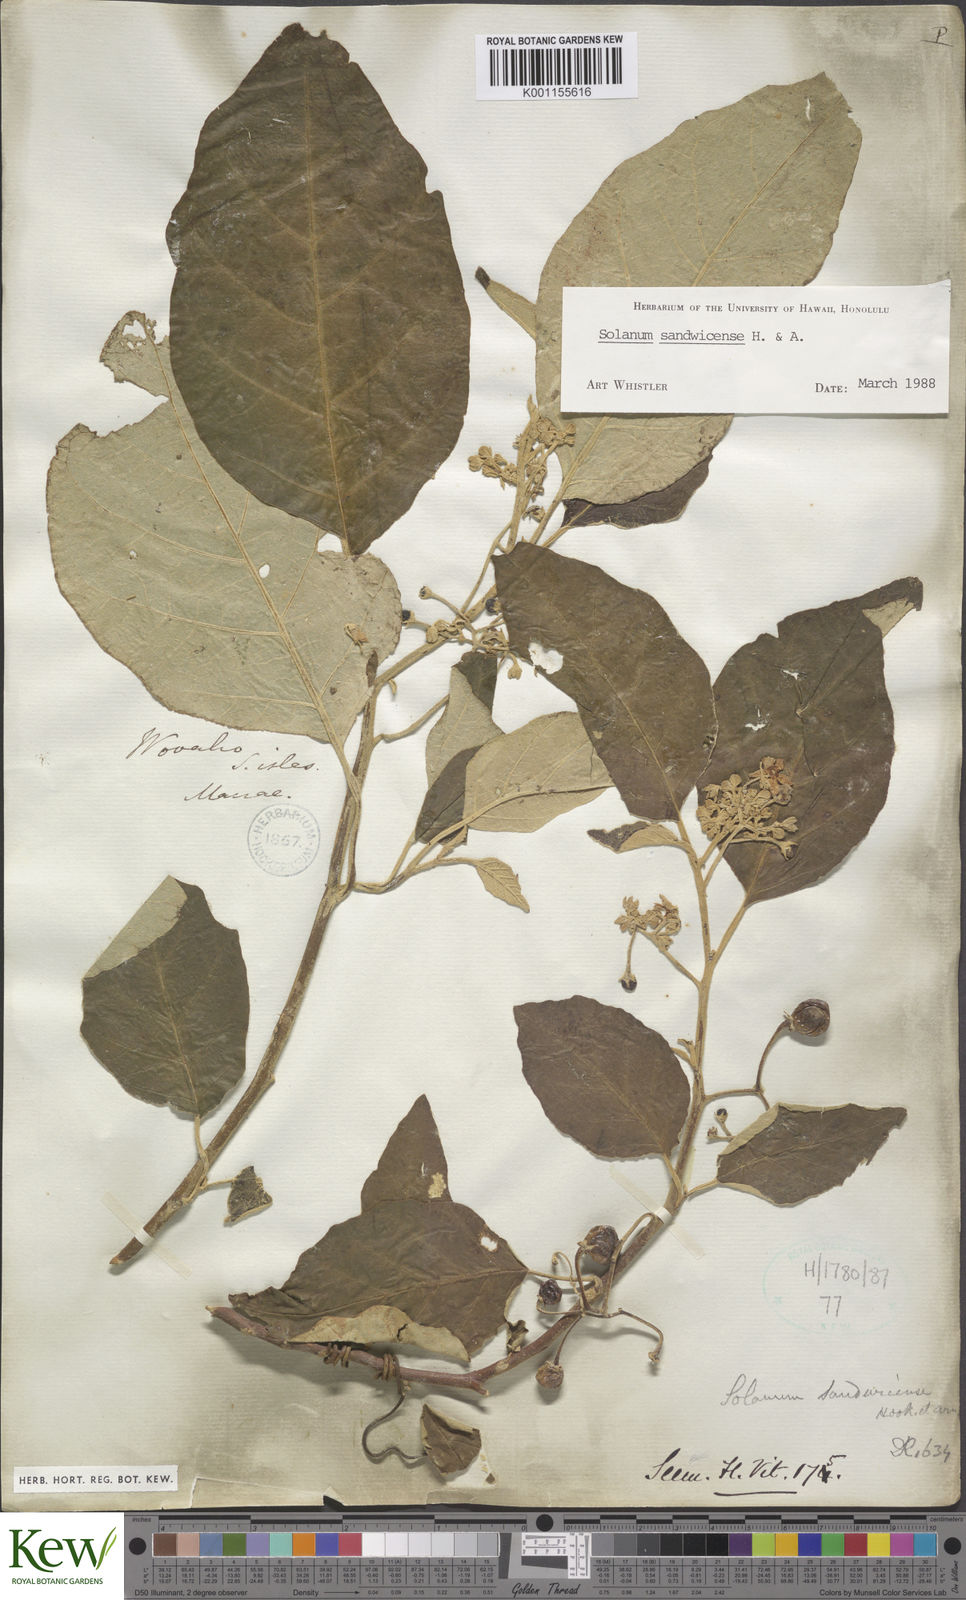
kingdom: Plantae
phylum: Tracheophyta
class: Magnoliopsida
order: Solanales
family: Solanaceae
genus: Solanum
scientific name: Solanum sandwicense
